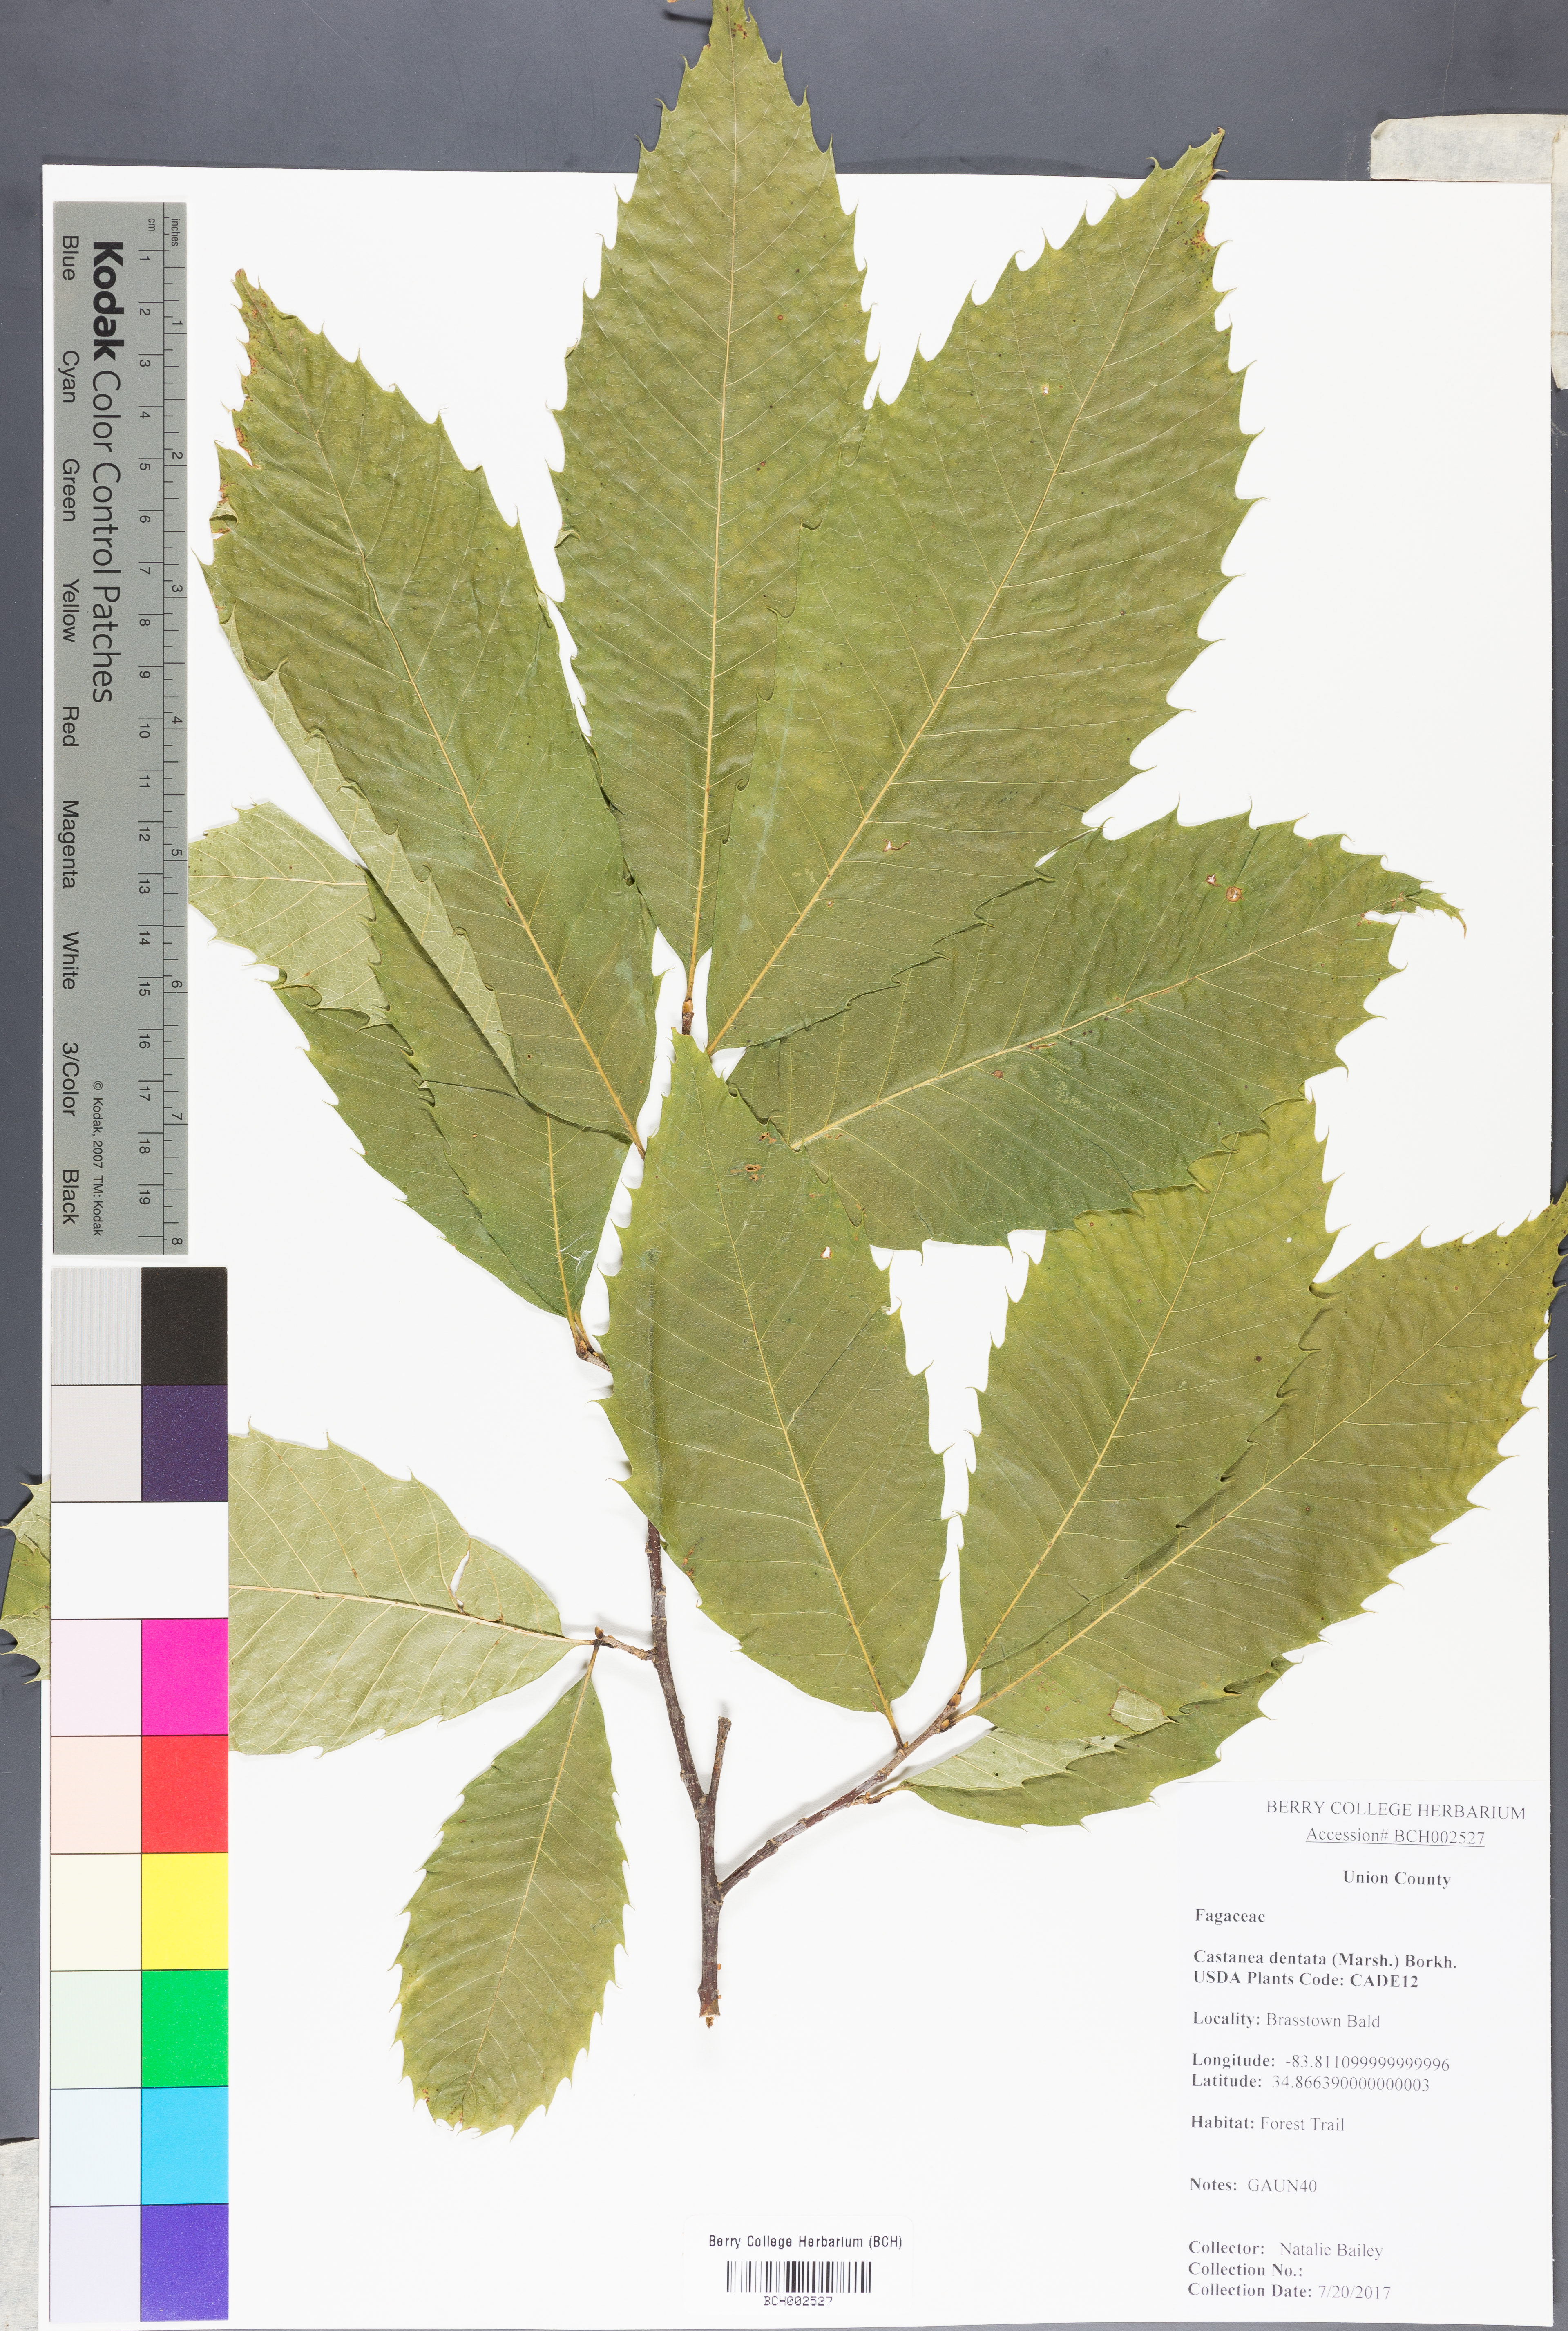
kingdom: Plantae
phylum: Tracheophyta
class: Magnoliopsida
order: Fagales
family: Fagaceae
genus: Castanea
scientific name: Castanea dentata
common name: American chestnut
